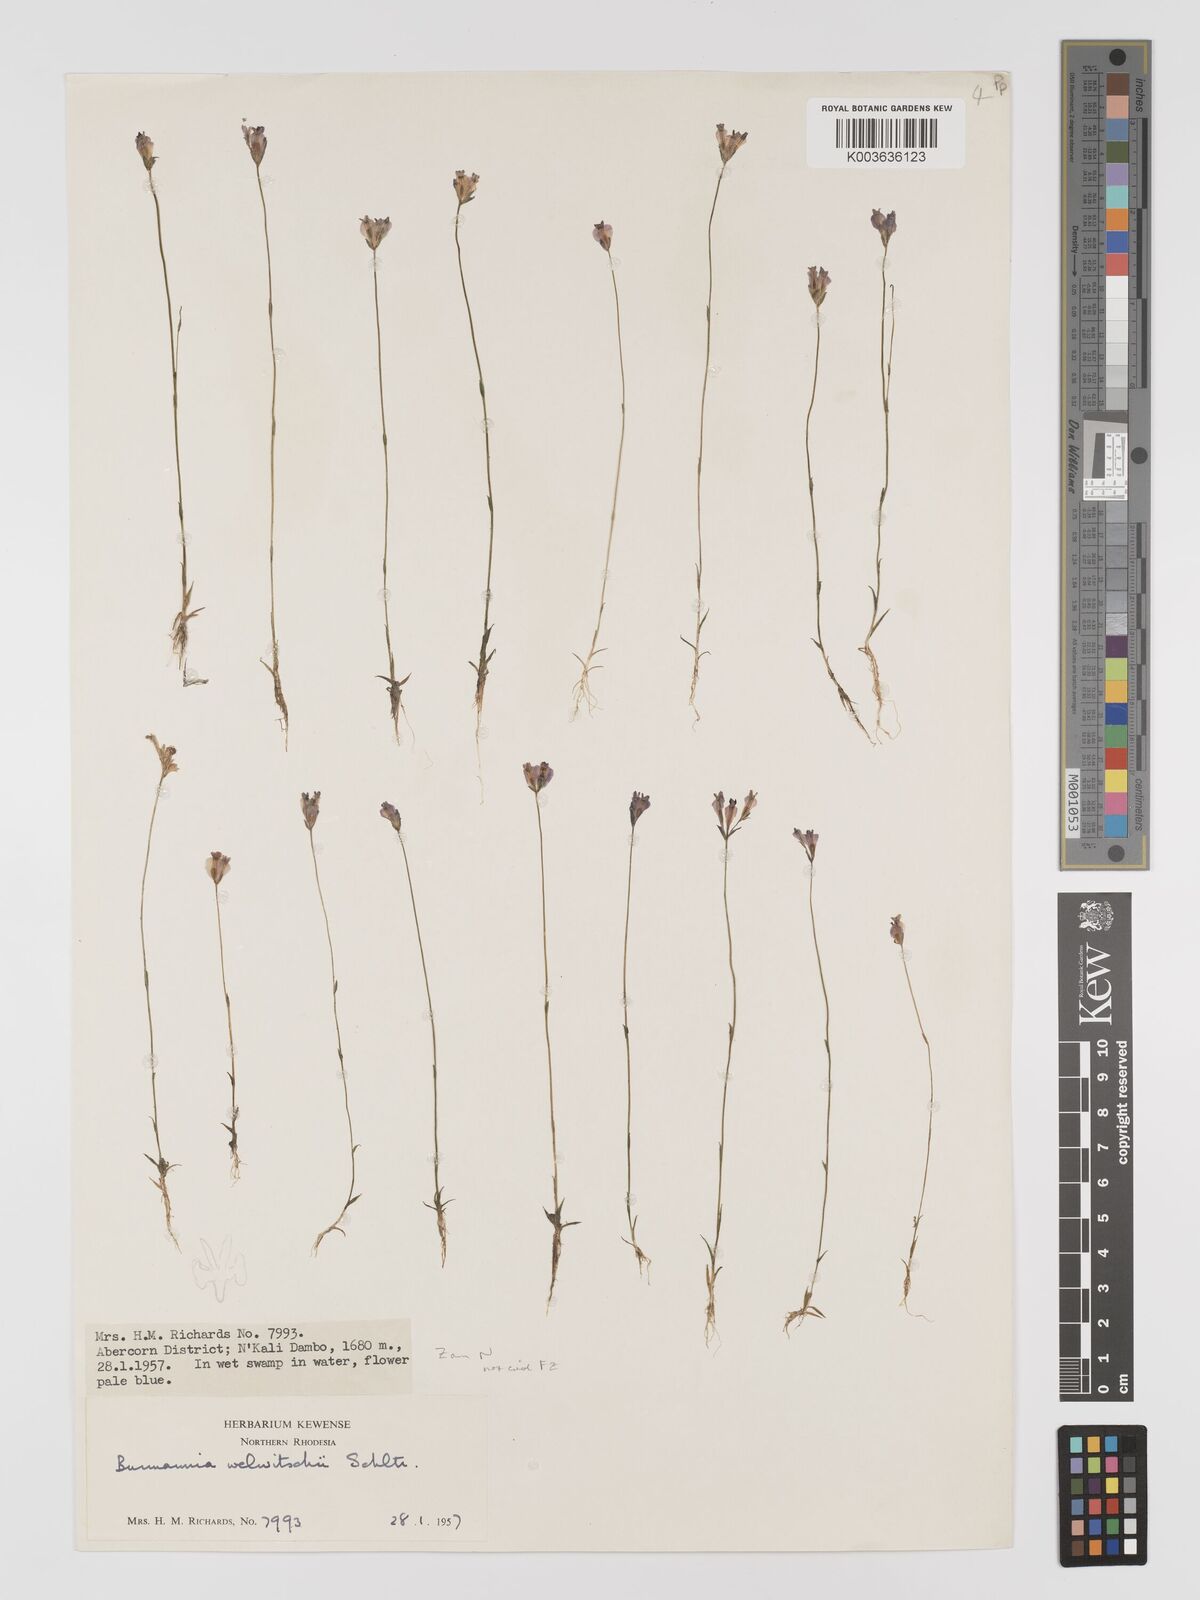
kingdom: Plantae
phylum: Tracheophyta
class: Liliopsida
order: Dioscoreales
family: Burmanniaceae
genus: Burmannia
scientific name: Burmannia madagascariensis
